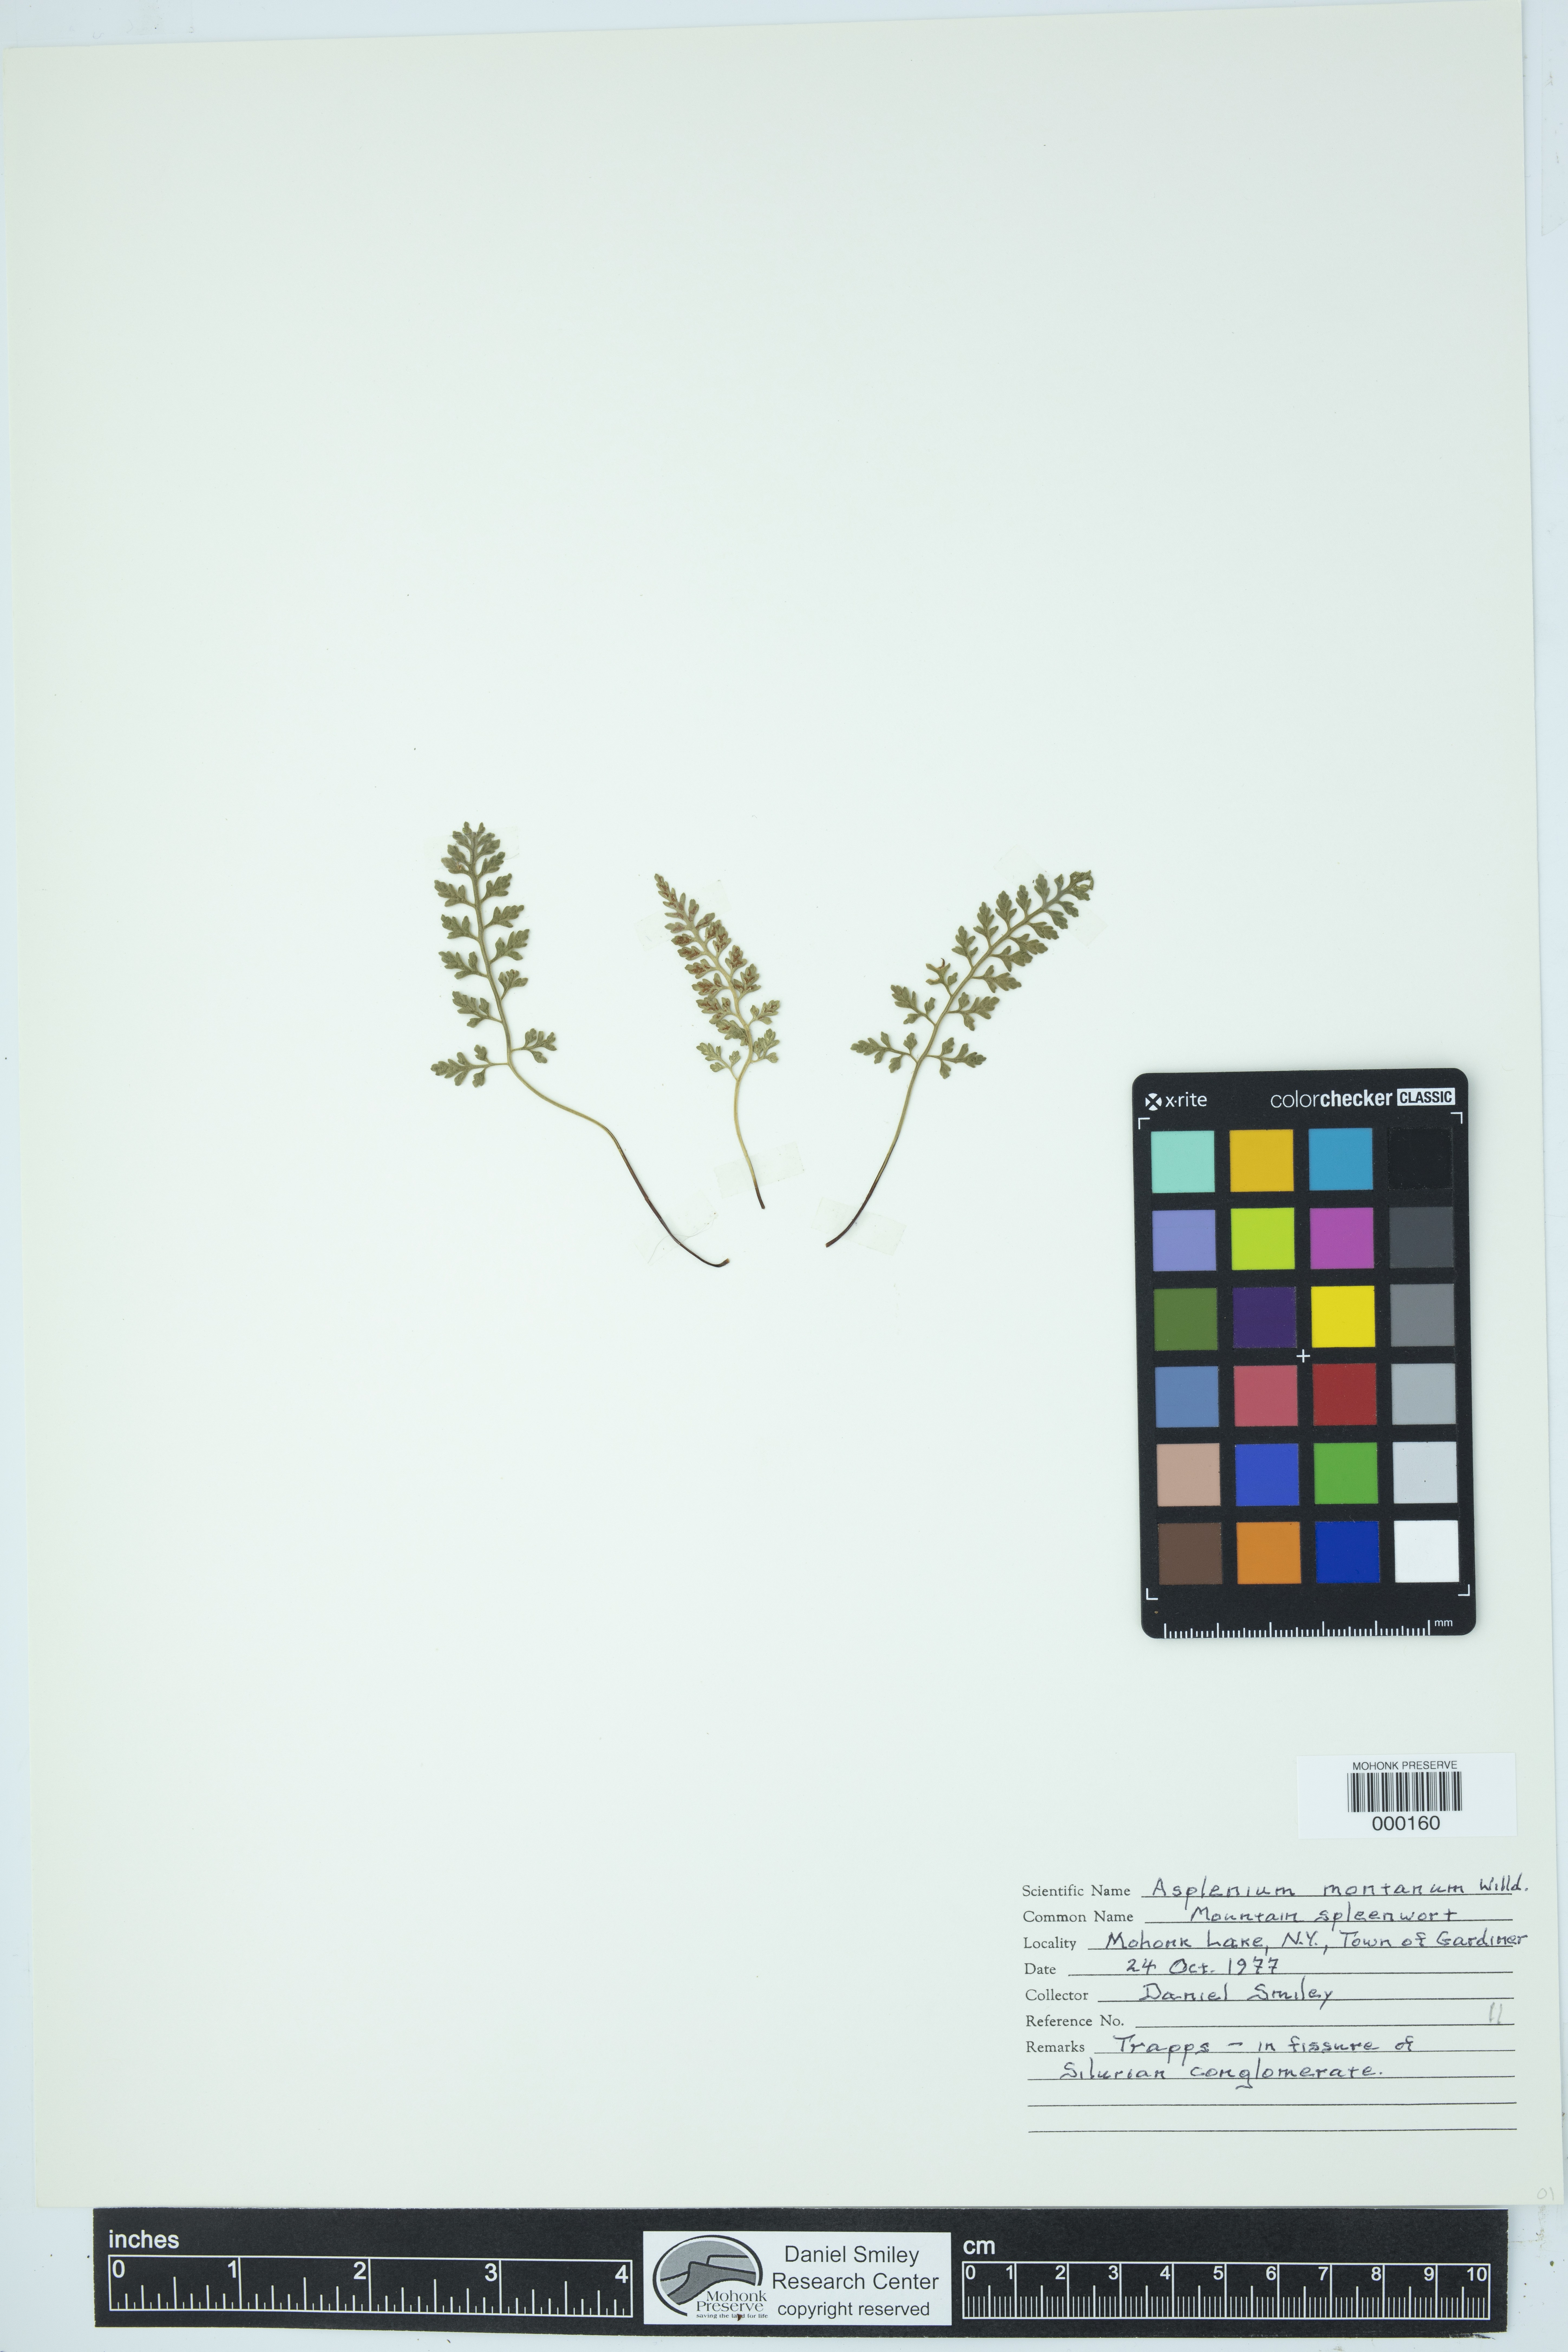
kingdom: Plantae
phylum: Tracheophyta
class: Polypodiopsida
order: Polypodiales
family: Aspleniaceae
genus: Asplenium
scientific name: Asplenium montanum
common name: Mountain spleenwort
